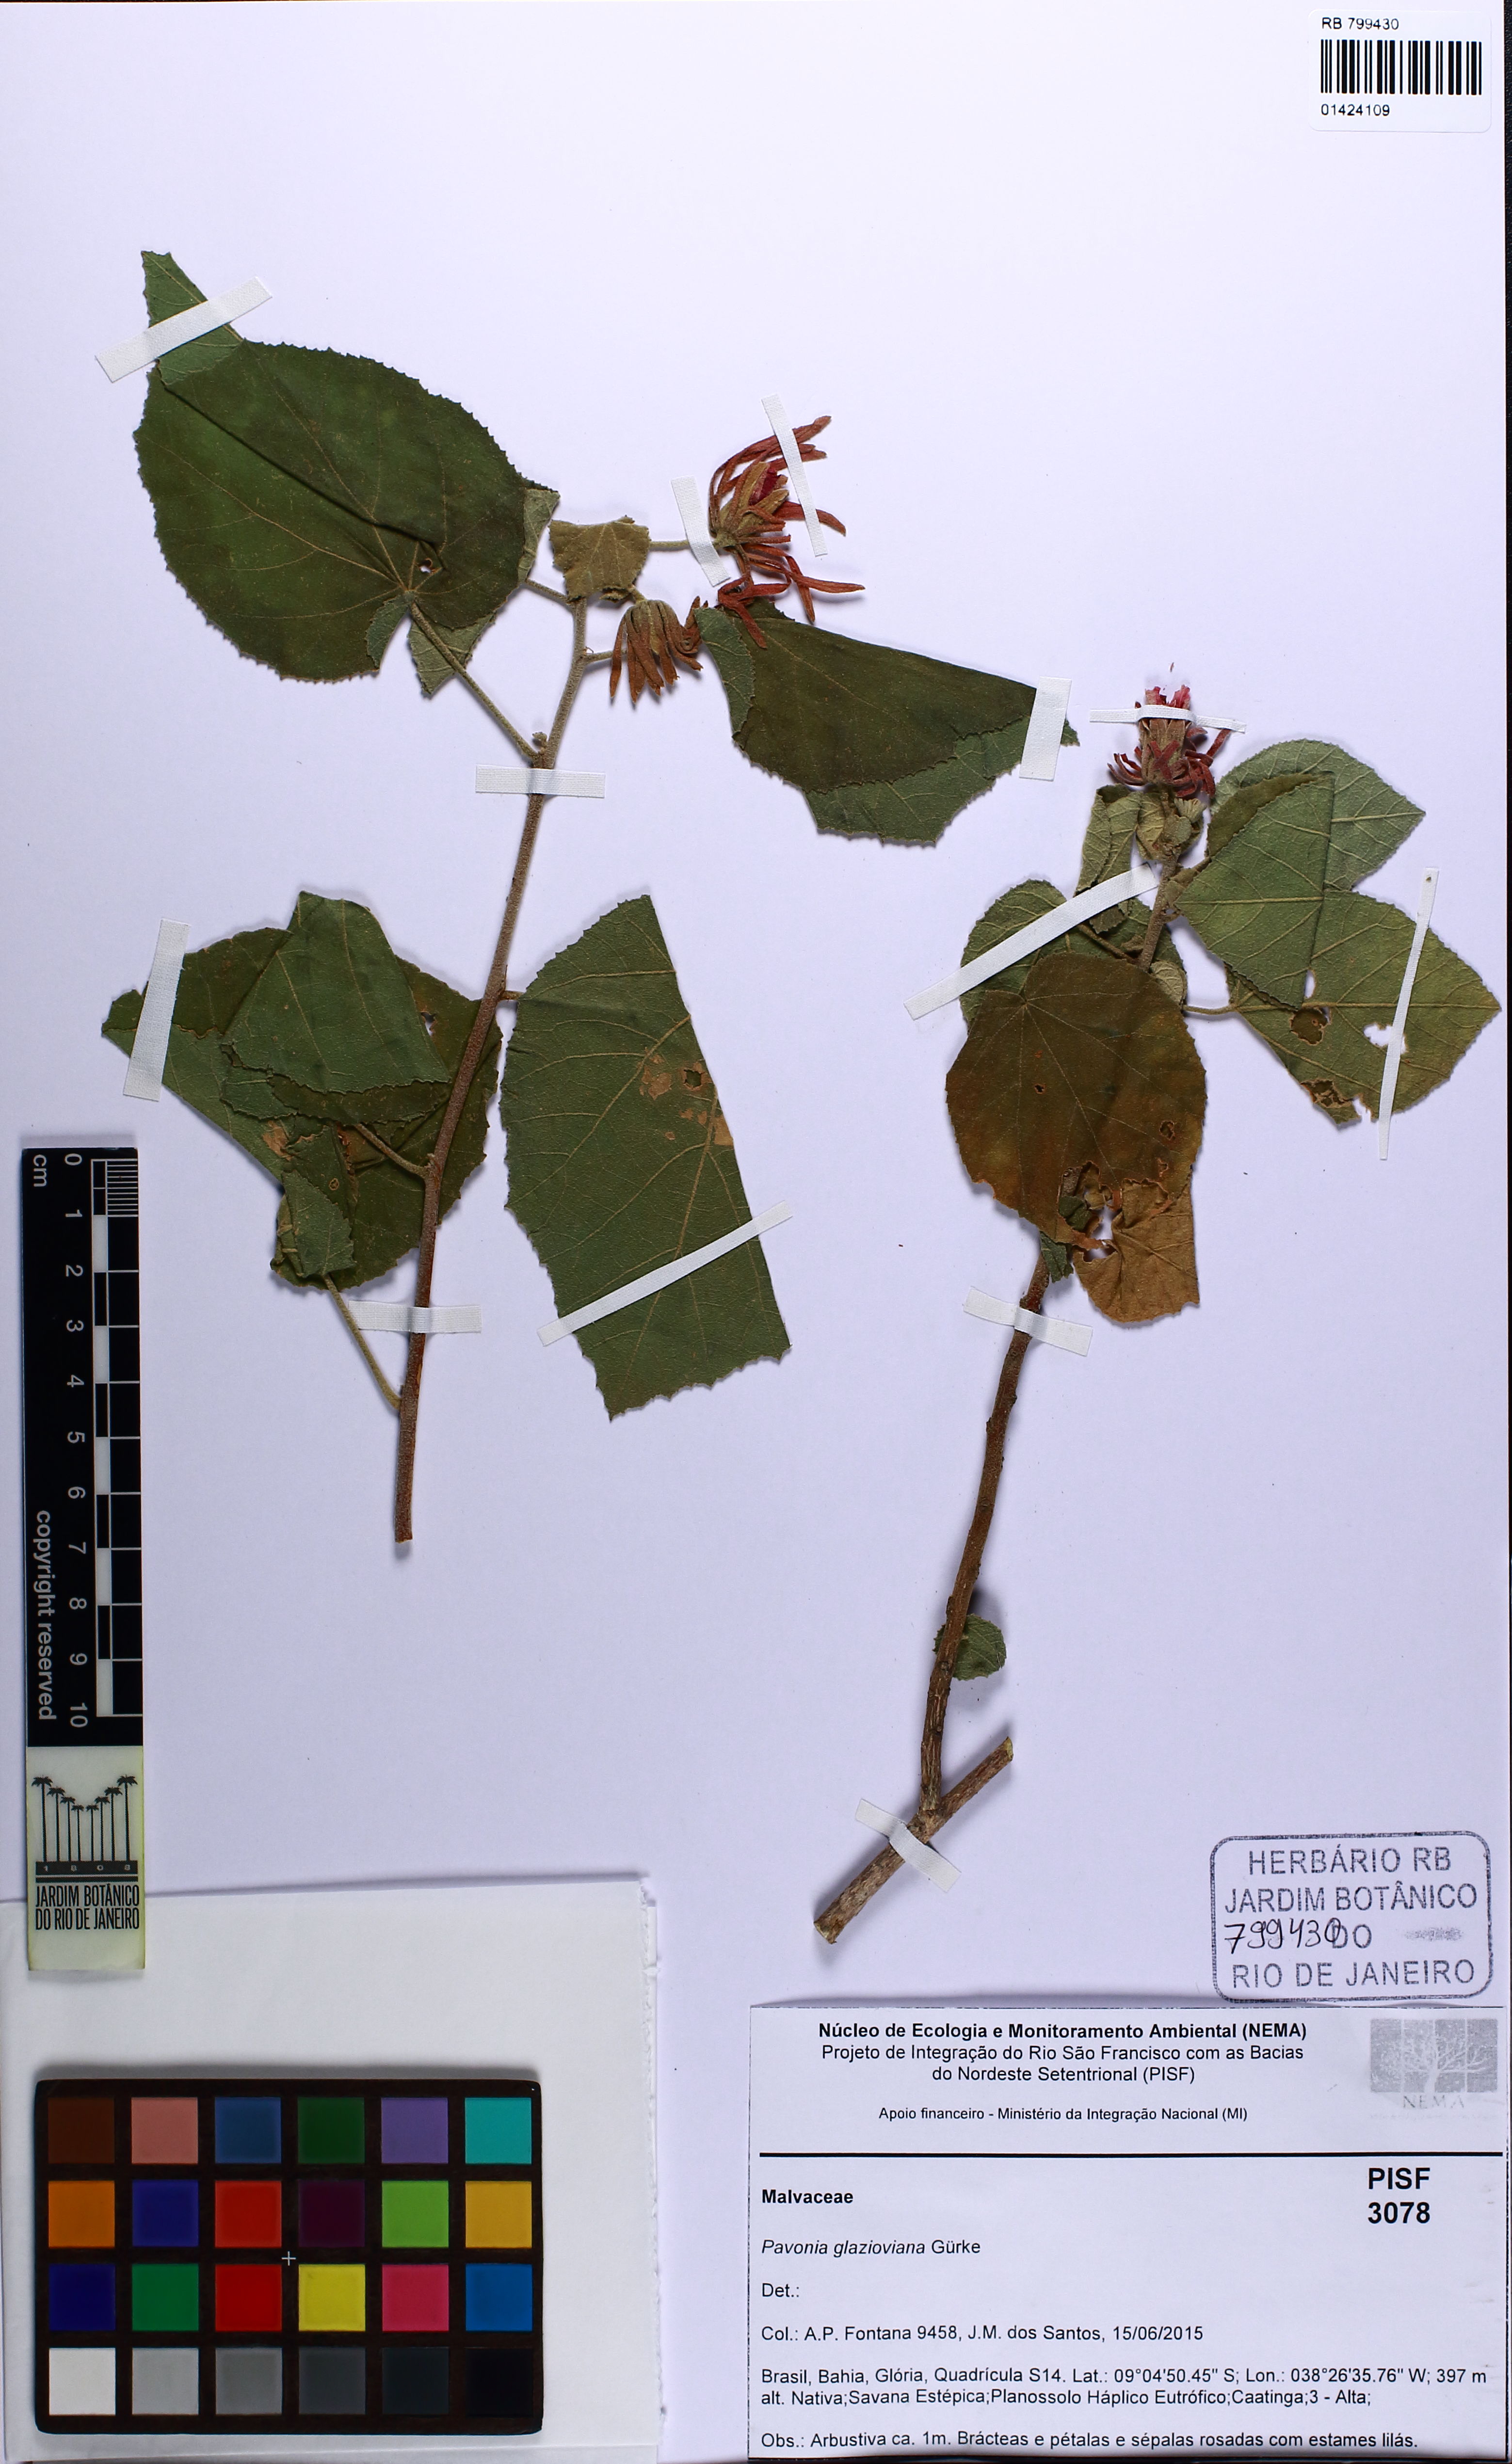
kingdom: Plantae
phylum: Tracheophyta
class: Magnoliopsida
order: Malvales
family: Malvaceae
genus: Pavonia
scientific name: Pavonia glazioviana
